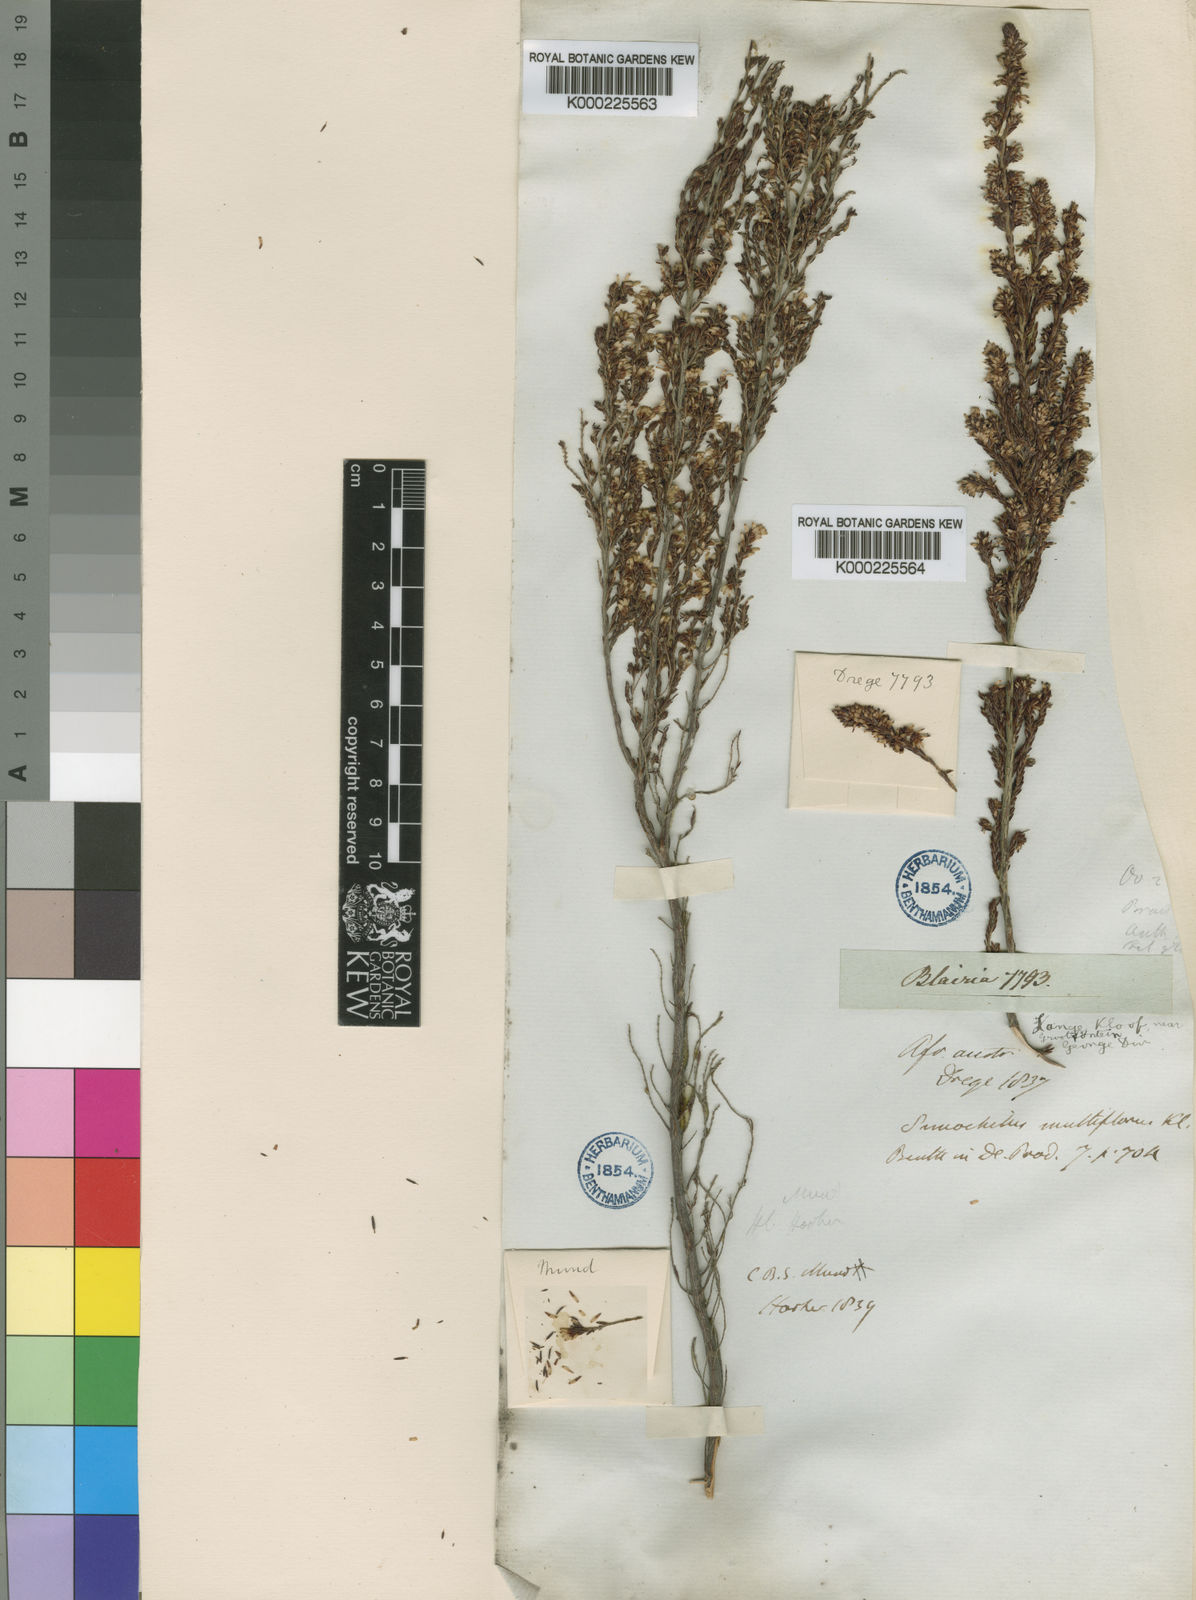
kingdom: Plantae
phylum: Tracheophyta
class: Magnoliopsida
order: Ericales
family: Ericaceae
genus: Erica
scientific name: Erica uberiflora
